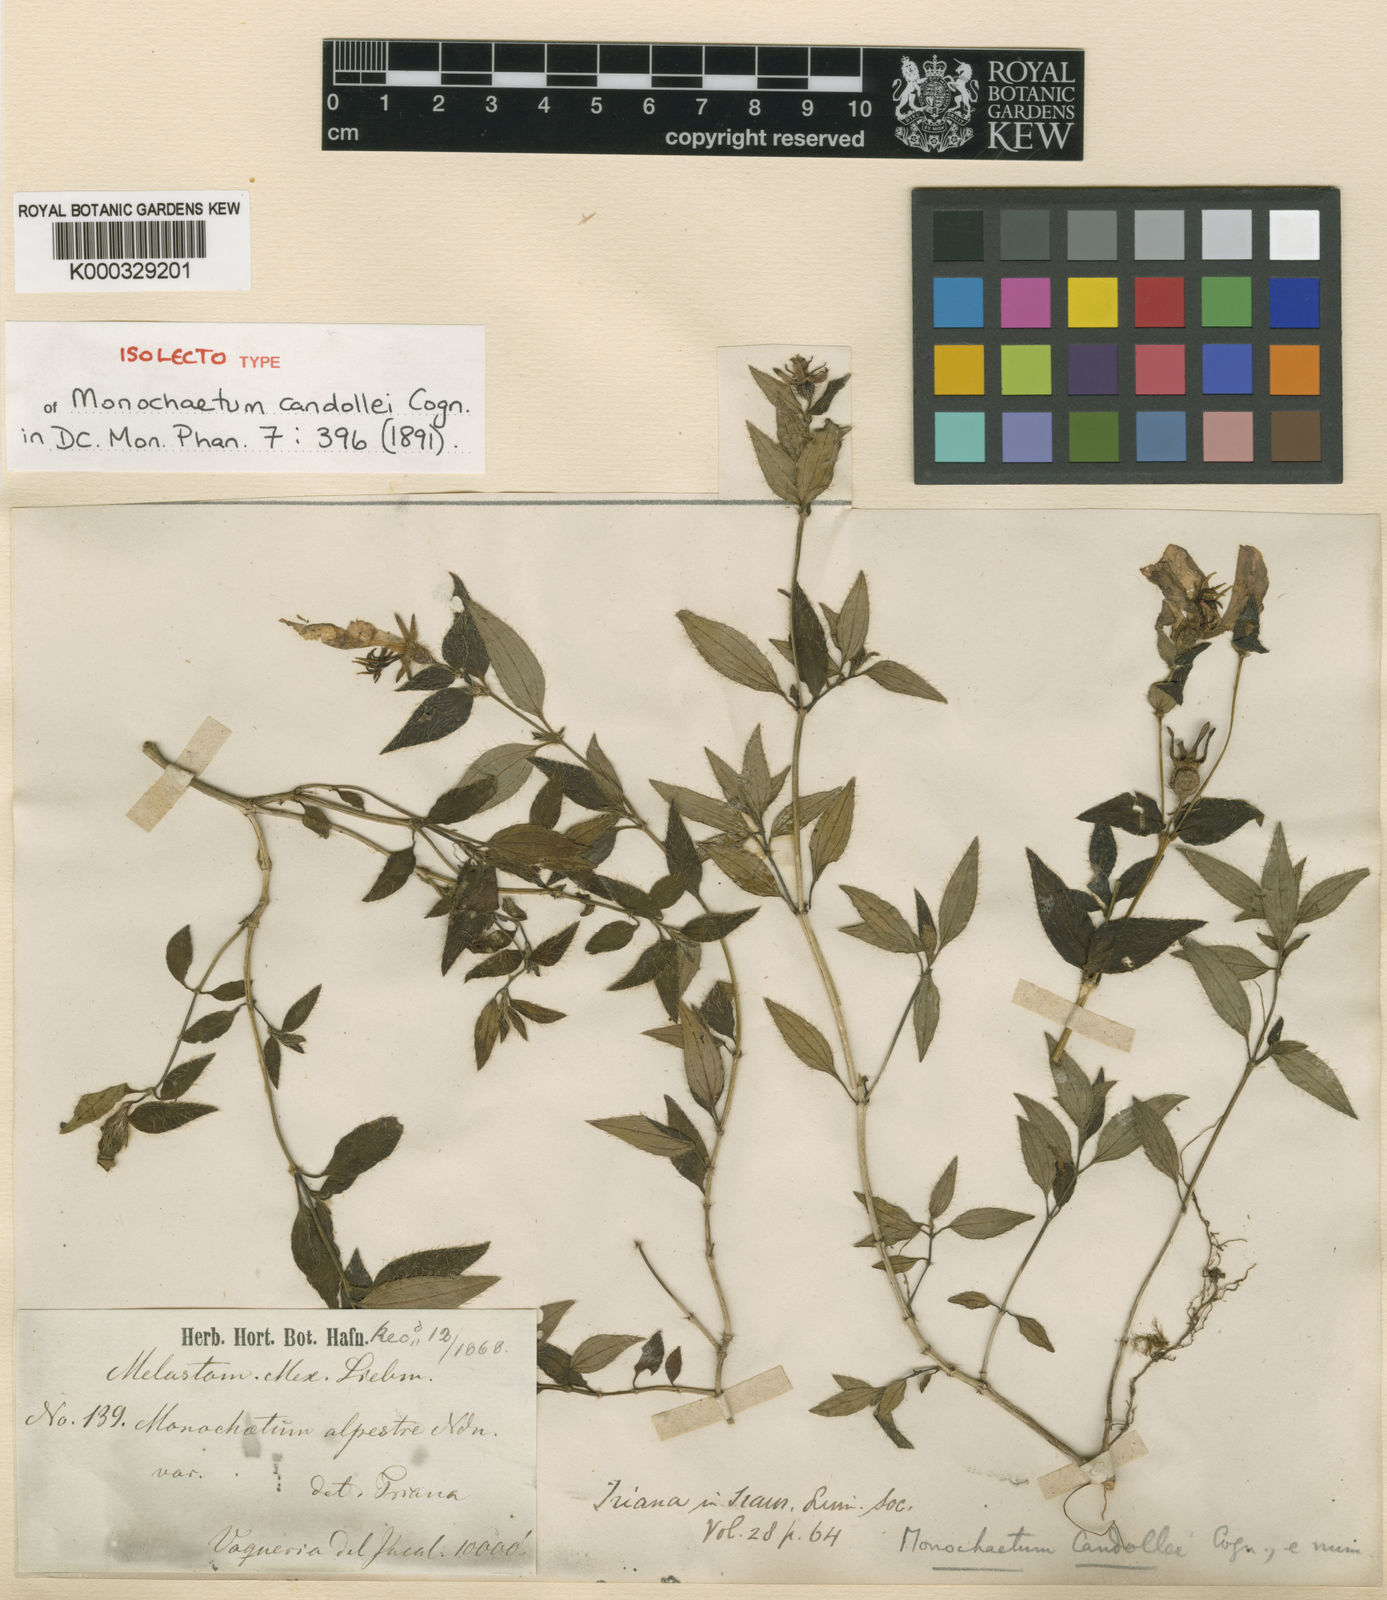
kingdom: Plantae
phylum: Tracheophyta
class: Magnoliopsida
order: Myrtales
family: Melastomataceae
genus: Monochaetum
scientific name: Monochaetum alpestre
